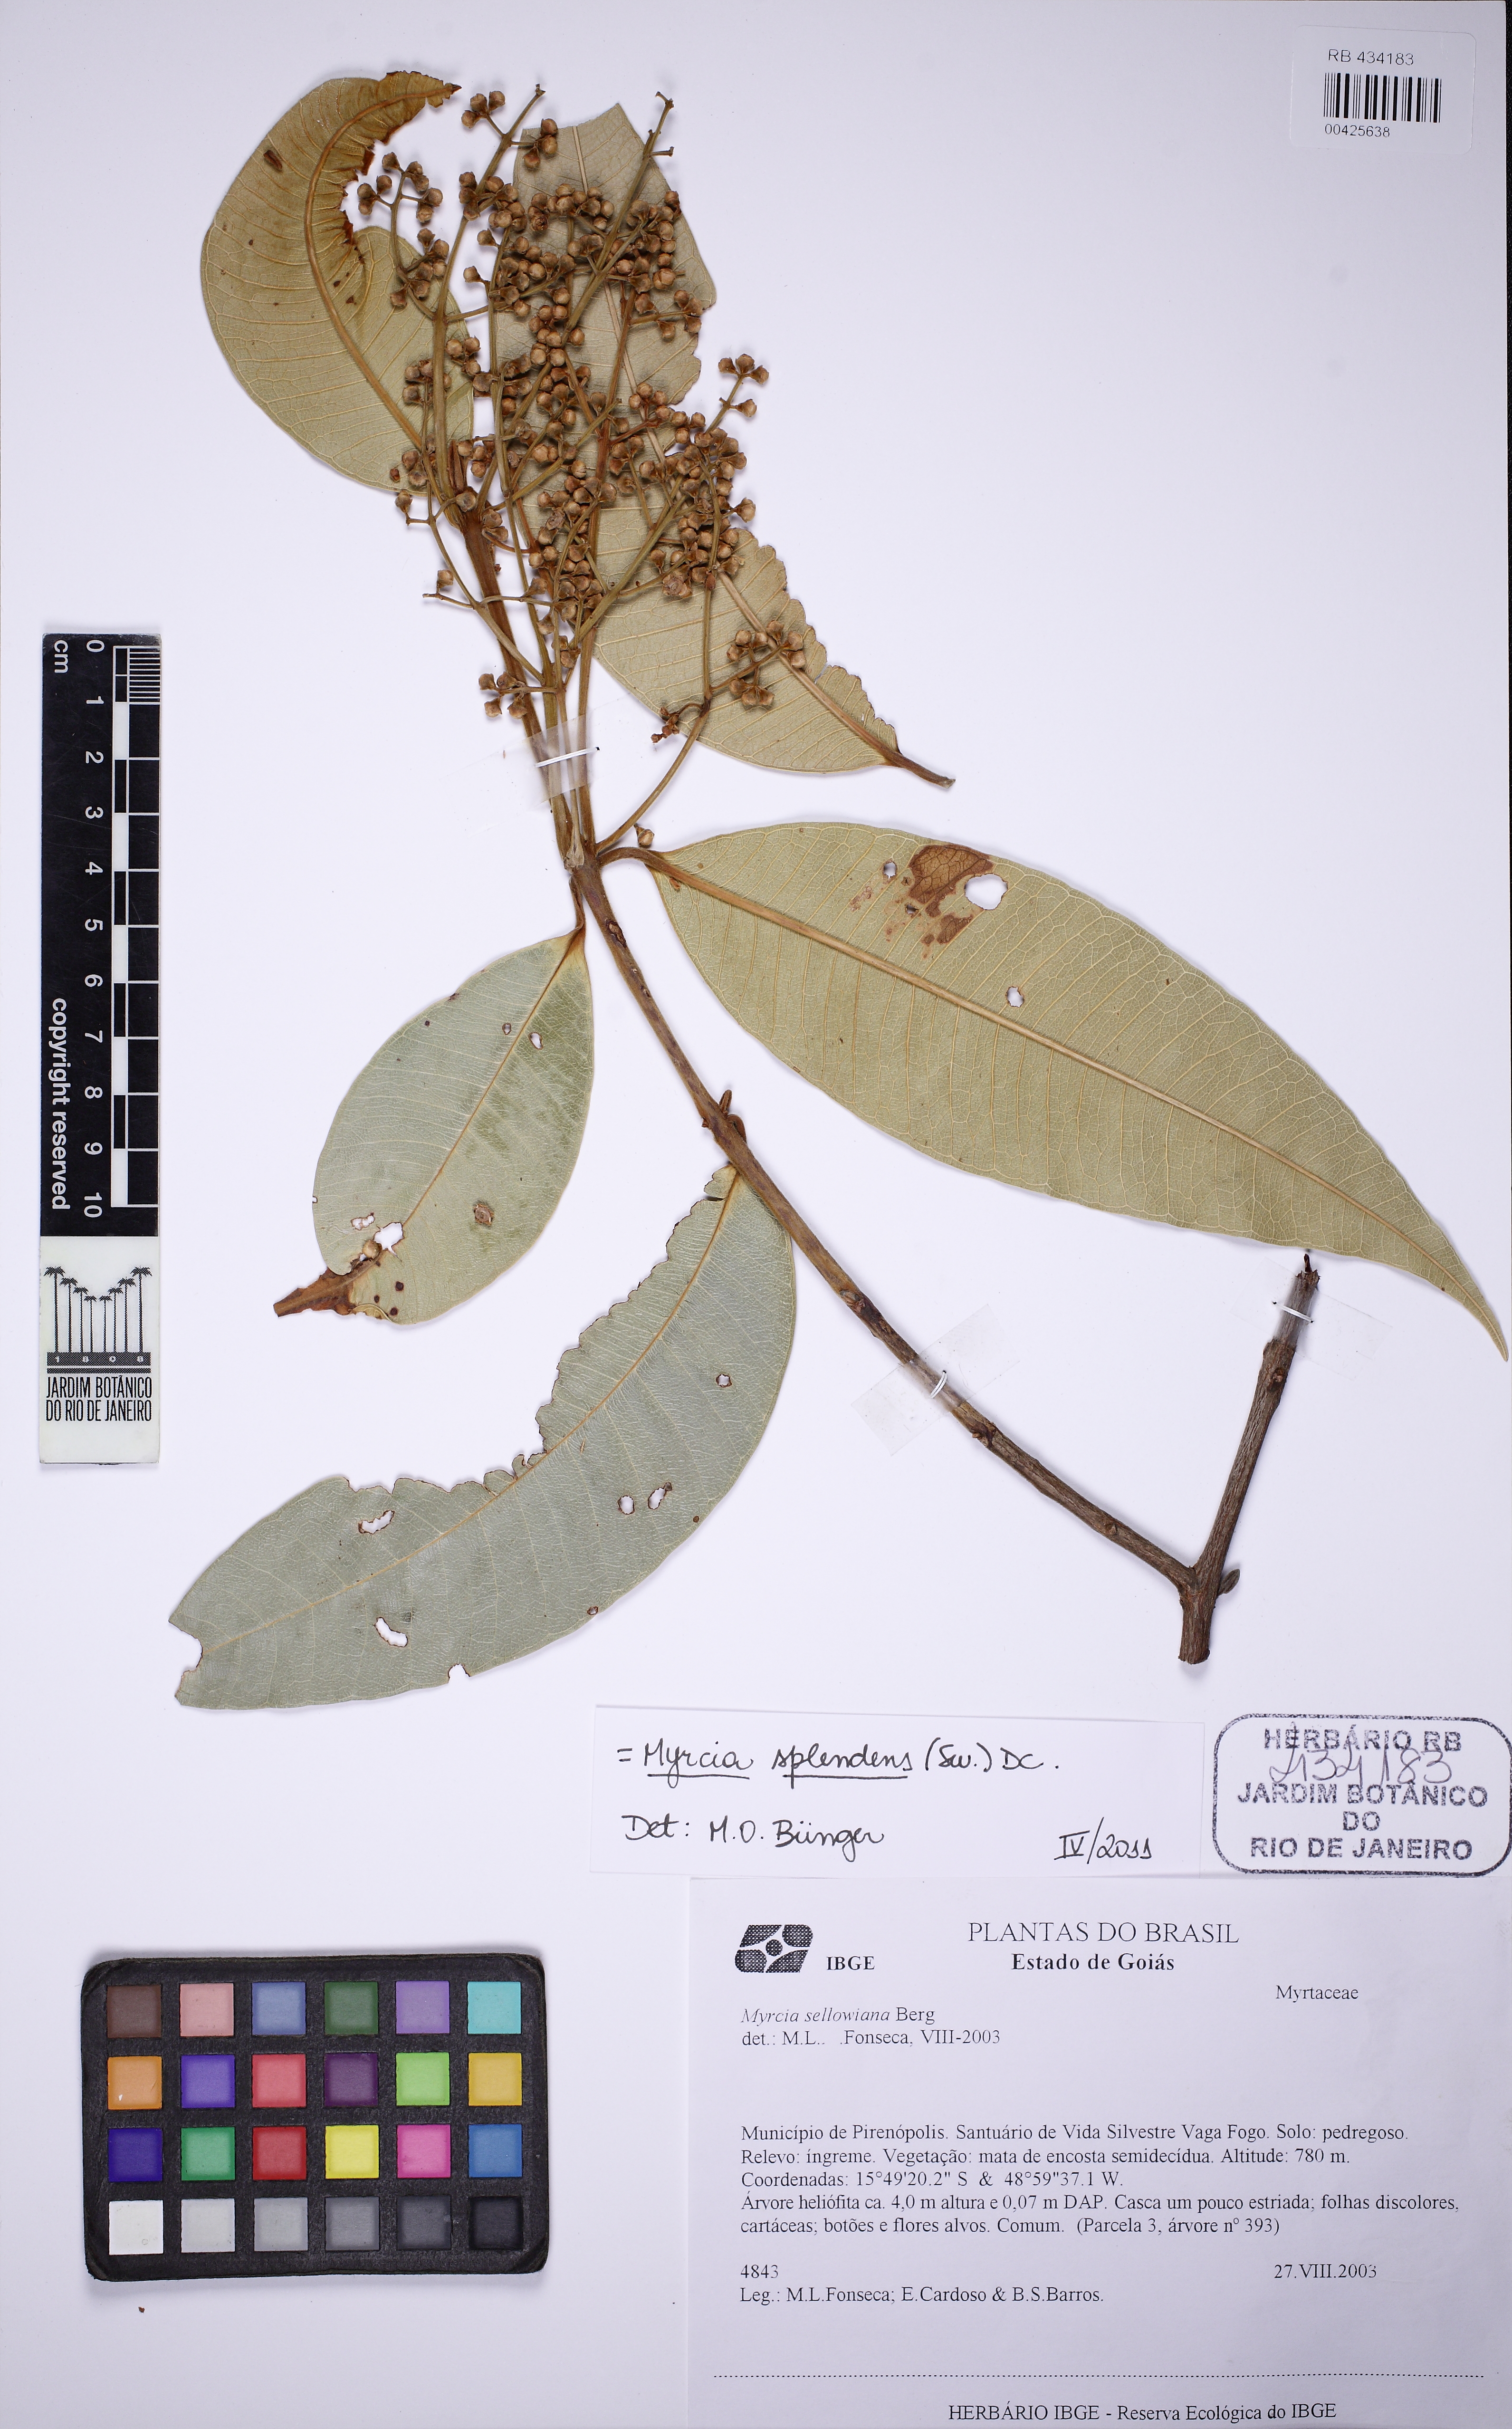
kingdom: Plantae
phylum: Tracheophyta
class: Magnoliopsida
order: Myrtales
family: Myrtaceae
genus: Myrcia
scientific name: Myrcia splendens
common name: Surinam cherry
